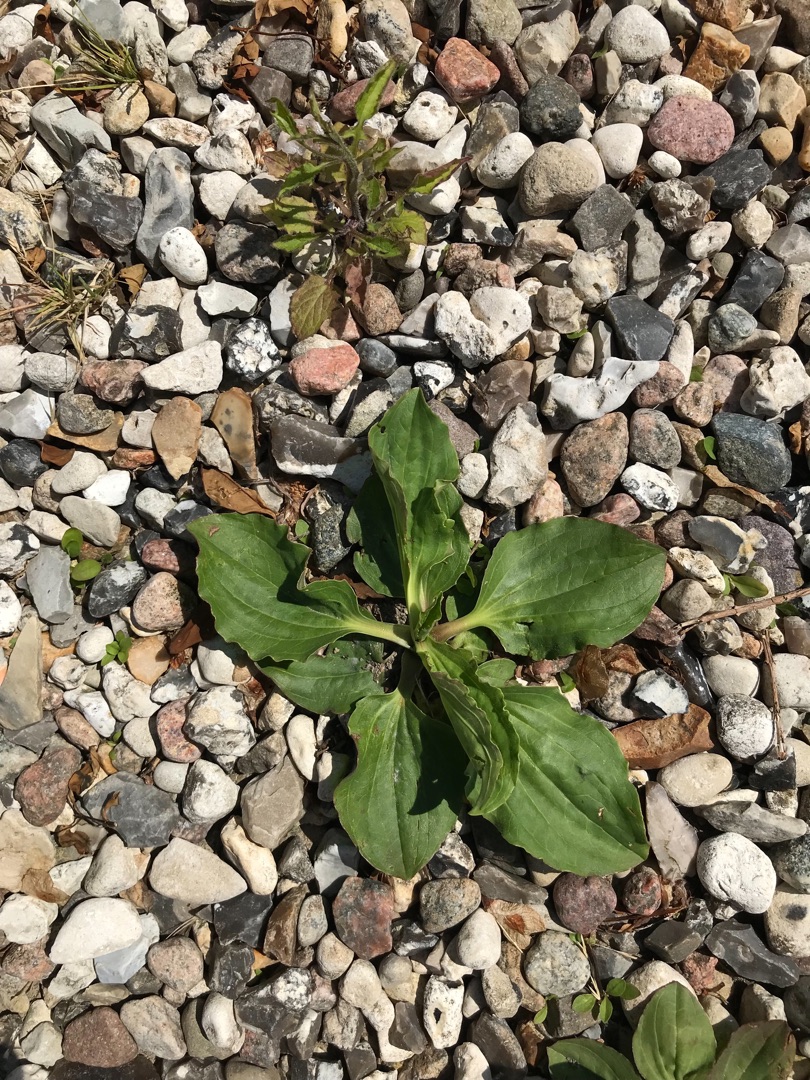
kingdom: Plantae
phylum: Tracheophyta
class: Magnoliopsida
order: Lamiales
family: Plantaginaceae
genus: Plantago
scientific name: Plantago major
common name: Glat vejbred
